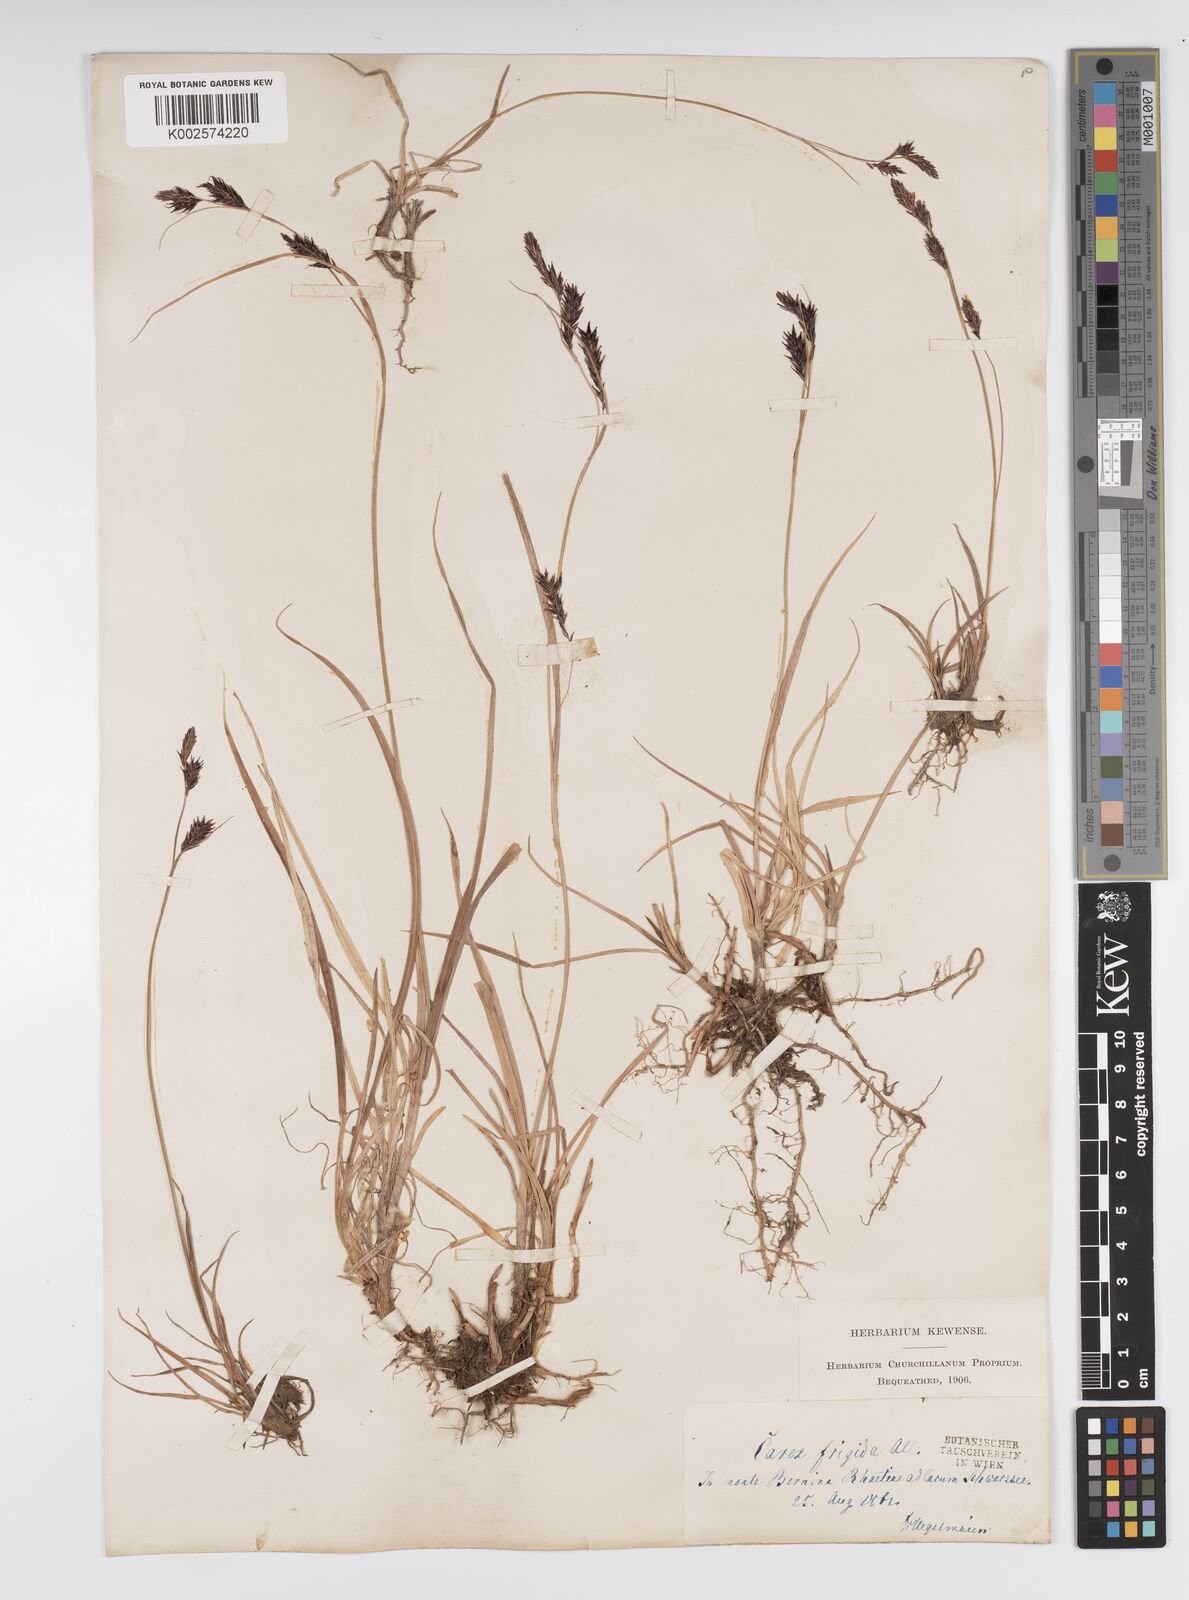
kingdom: Plantae
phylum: Tracheophyta
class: Liliopsida
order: Poales
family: Cyperaceae
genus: Carex
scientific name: Carex frigida
